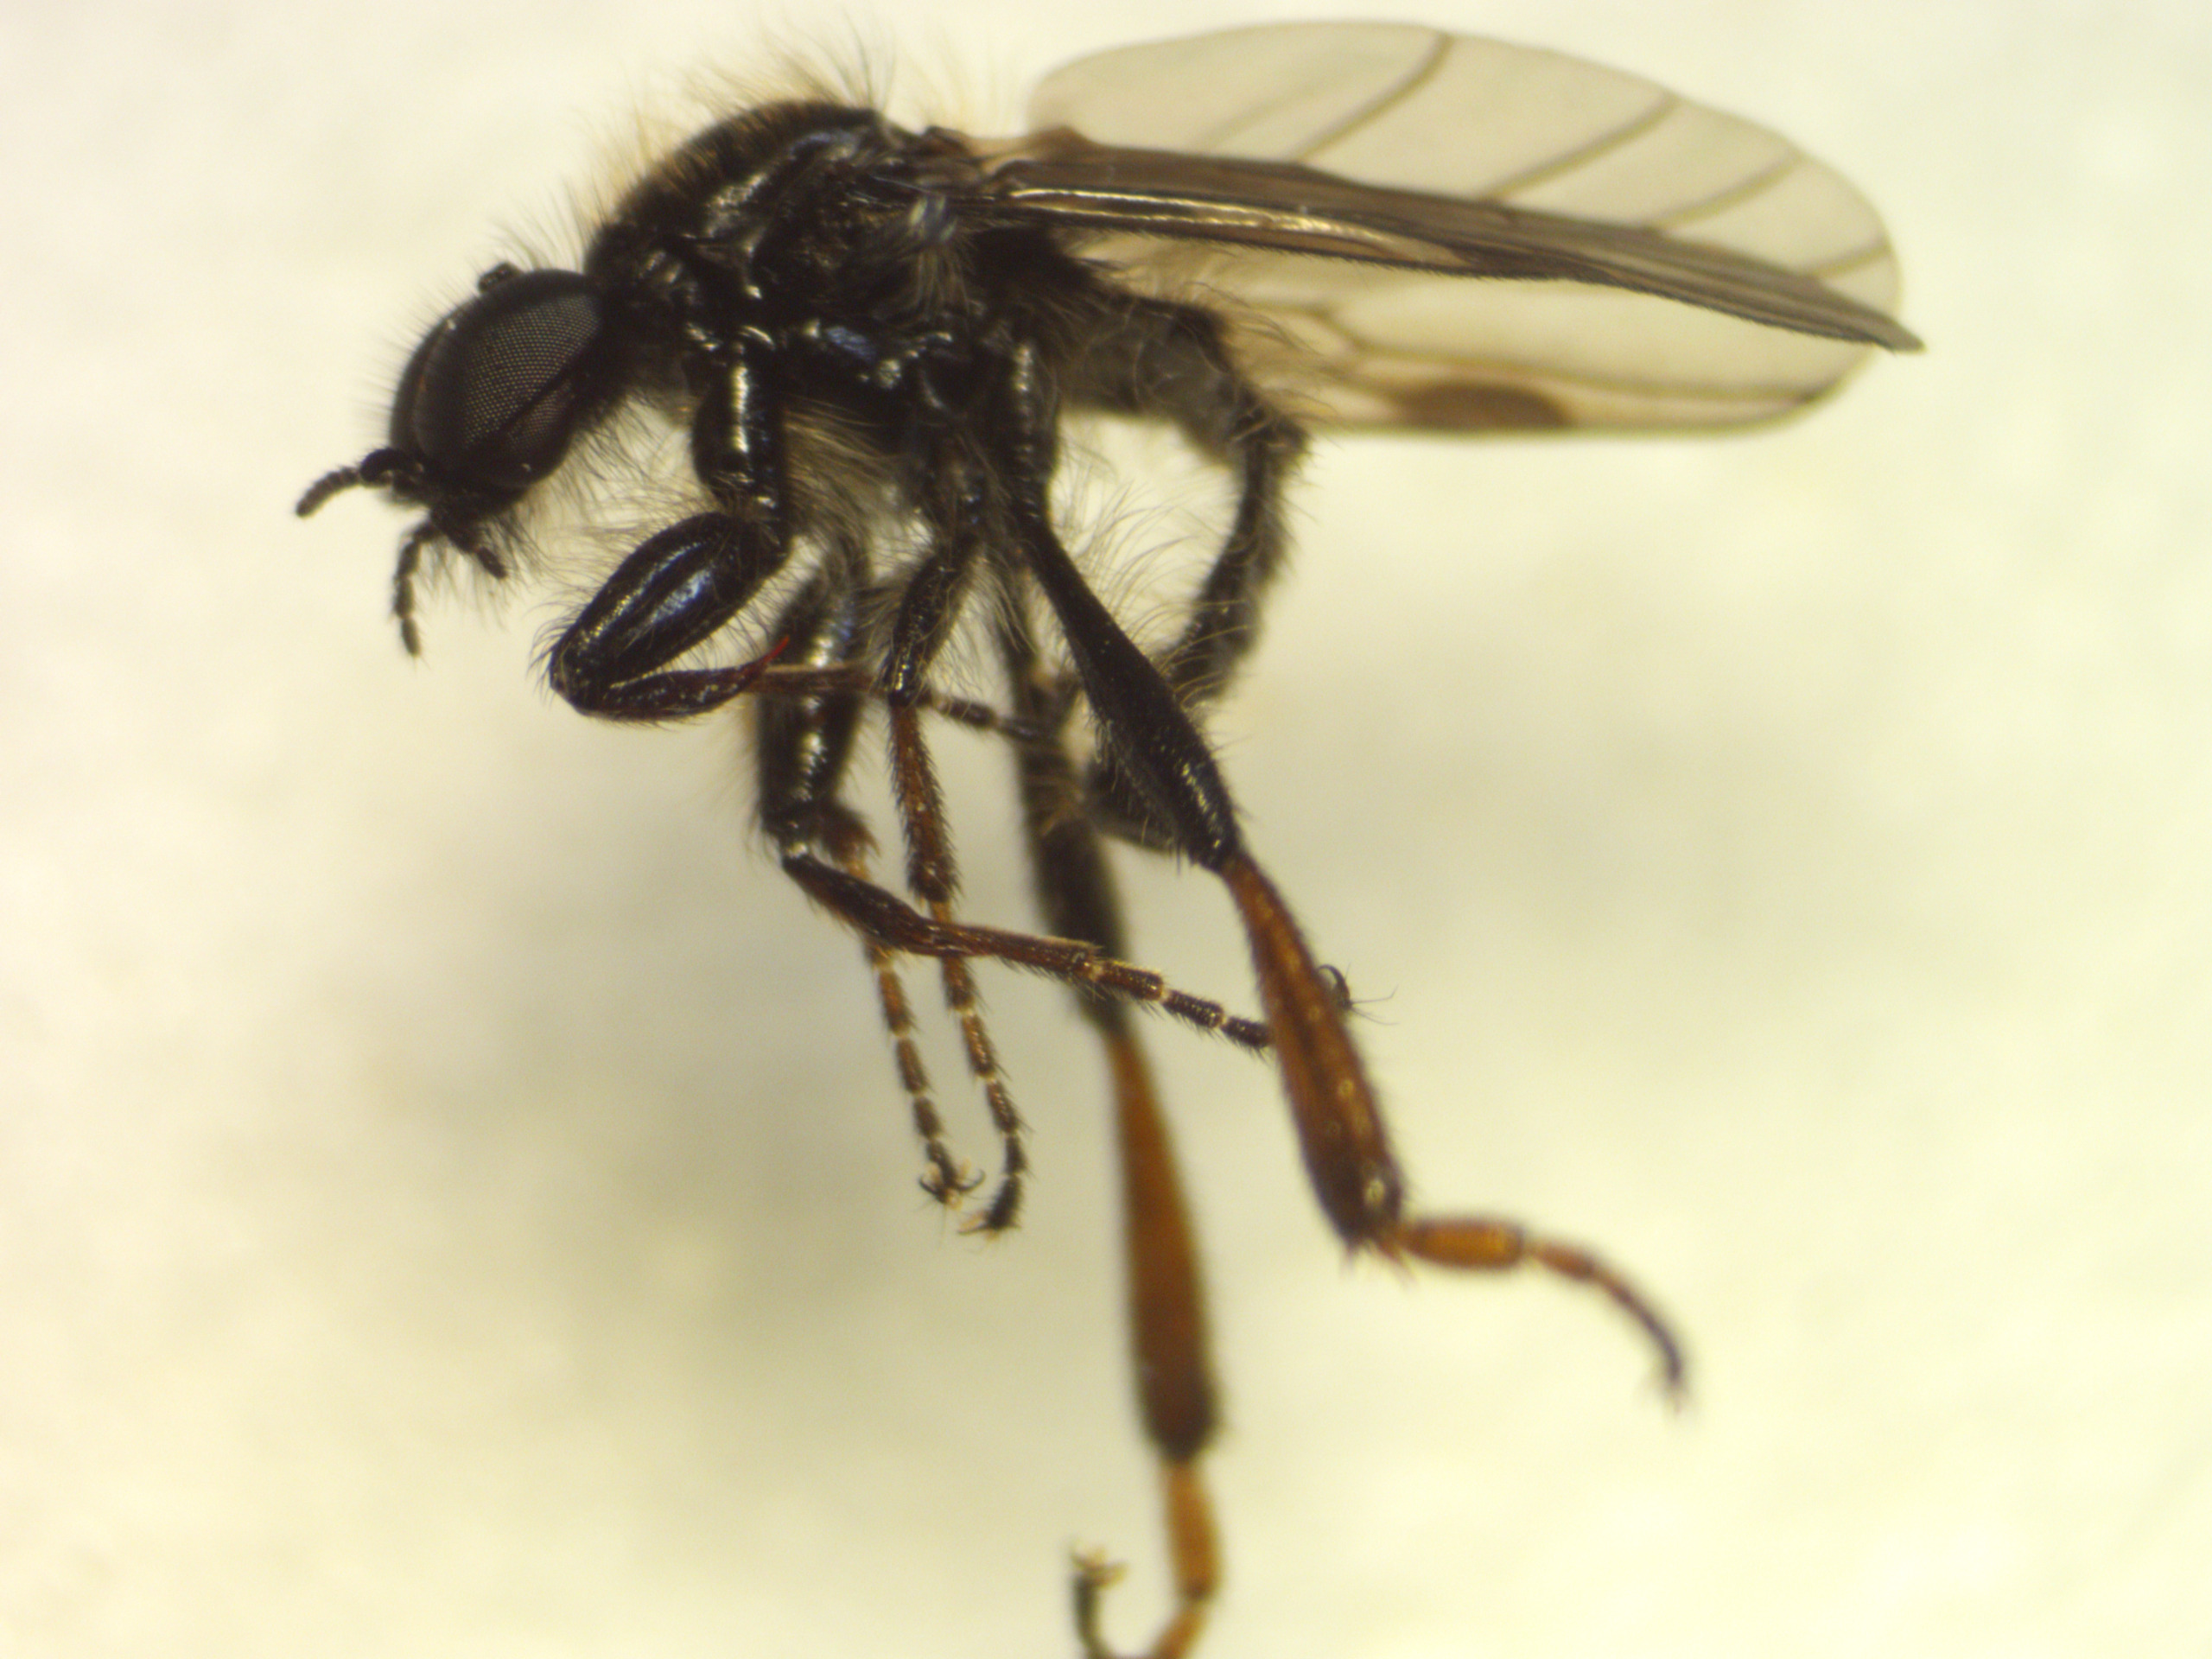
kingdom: Animalia
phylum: Arthropoda
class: Insecta
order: Diptera
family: Bibionidae
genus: Bibio
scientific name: Bibio lanigerus
